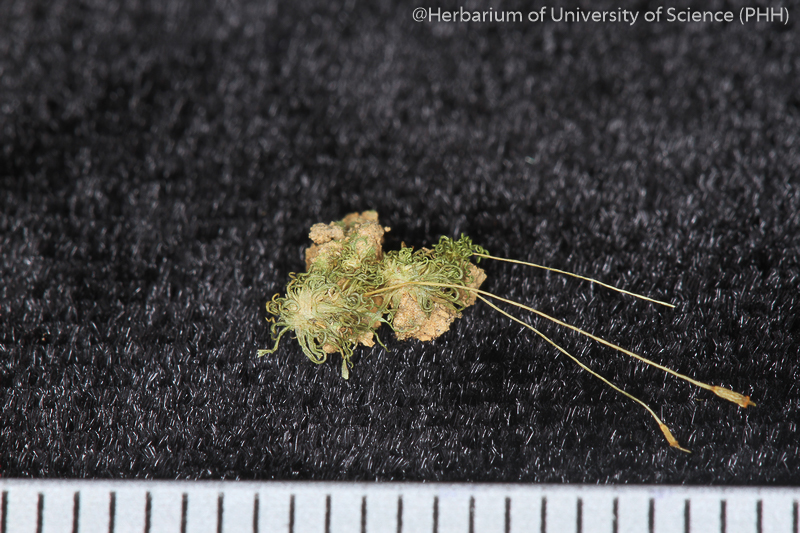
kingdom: Plantae
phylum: Bryophyta
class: Bryopsida
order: Pottiales
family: Pottiaceae
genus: Weissia
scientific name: Weissia edentula
